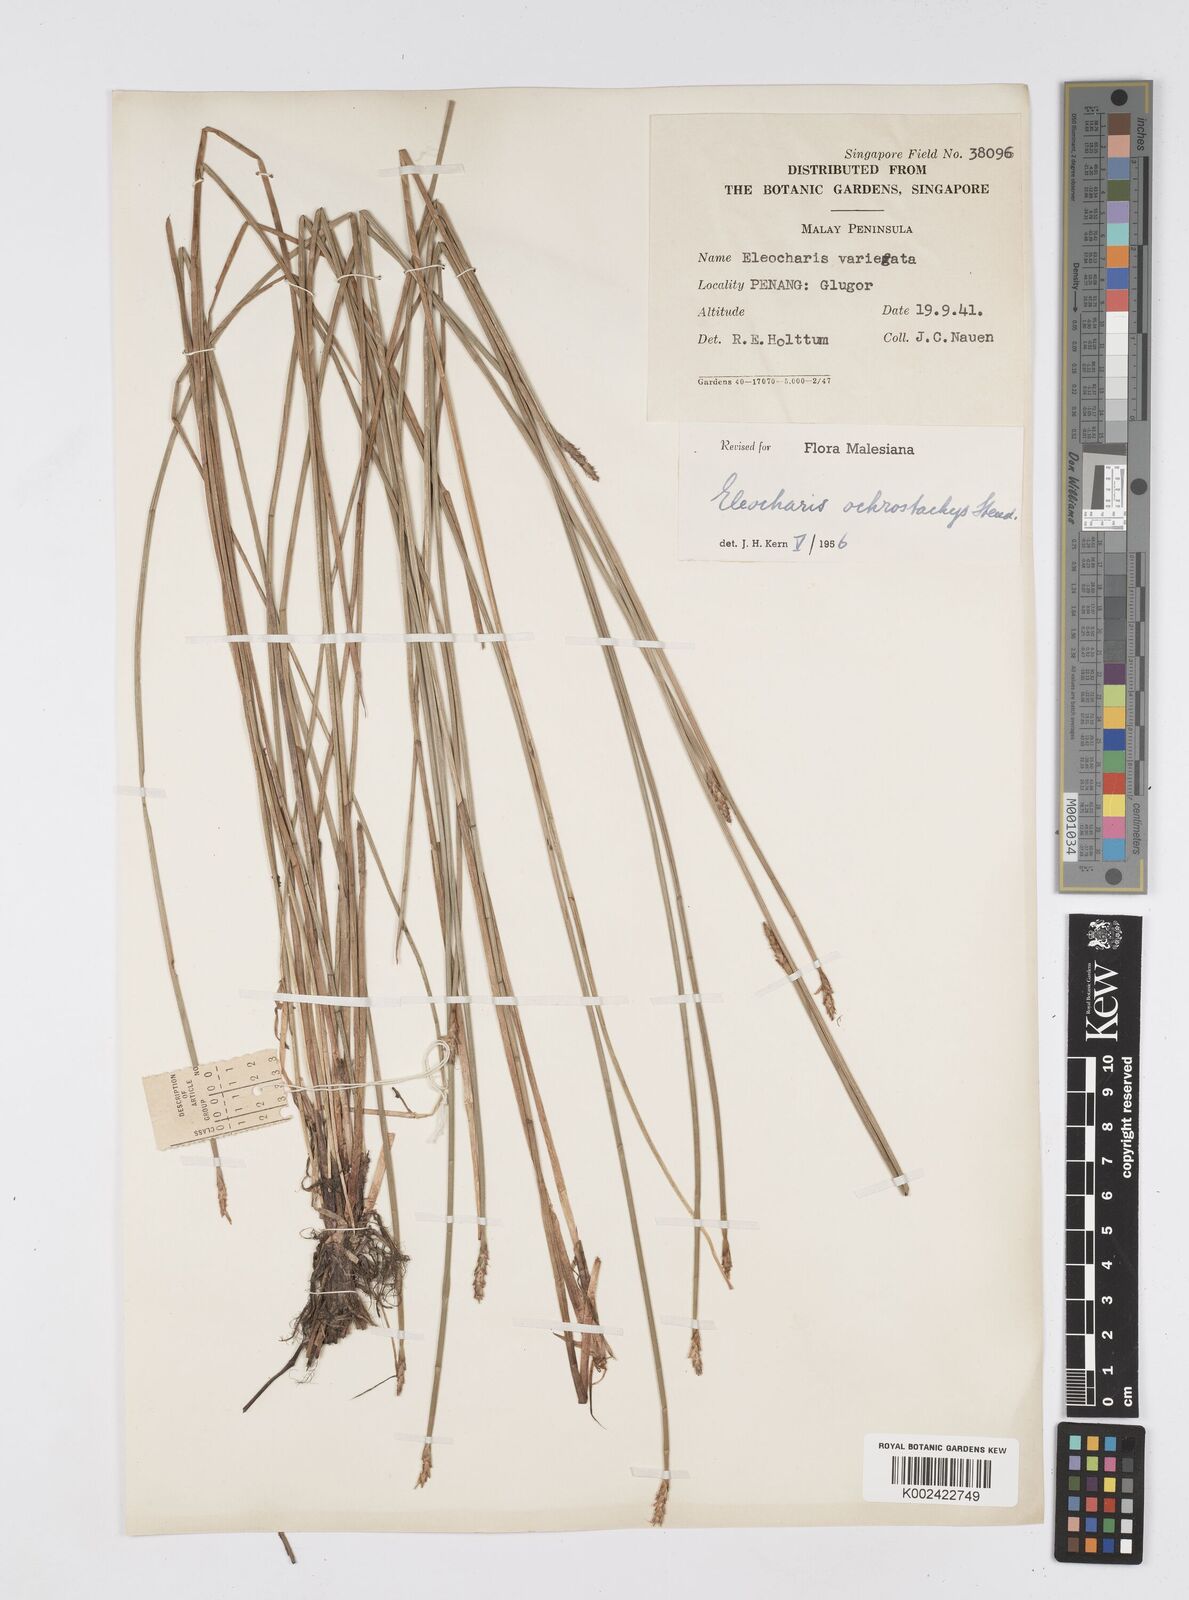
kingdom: Plantae
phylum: Tracheophyta
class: Liliopsida
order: Poales
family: Cyperaceae
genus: Eleocharis
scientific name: Eleocharis ochrostachys
